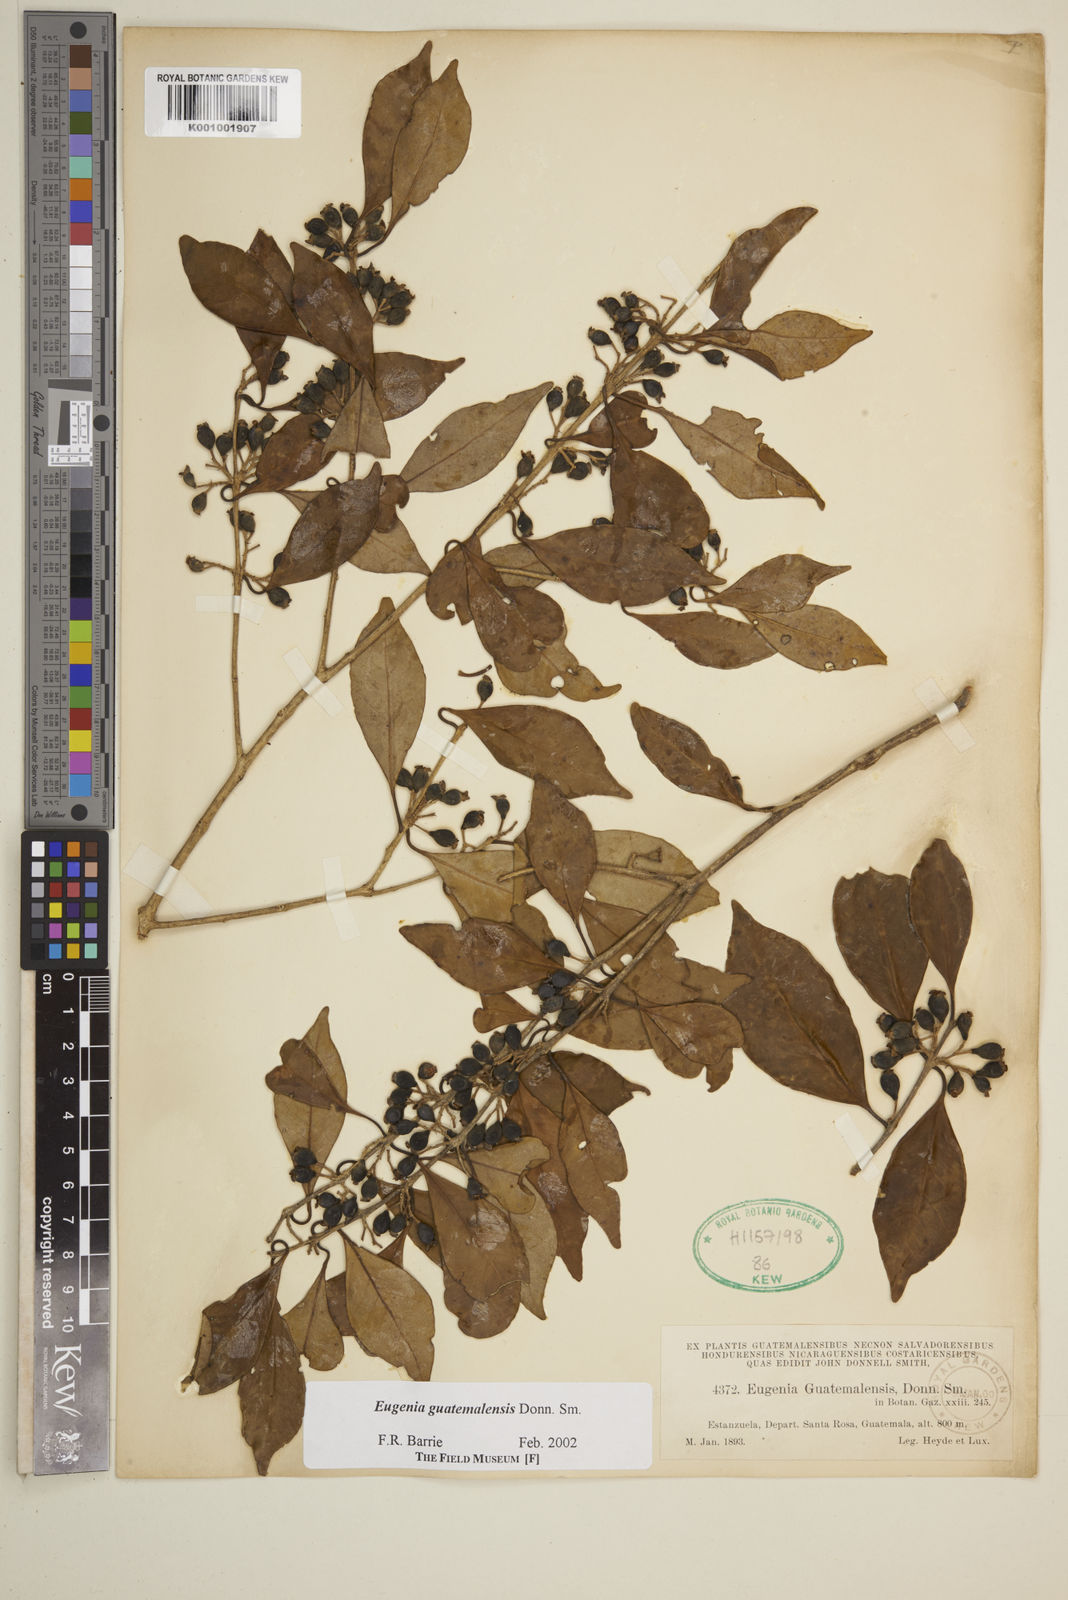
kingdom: Plantae
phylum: Tracheophyta
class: Magnoliopsida
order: Myrtales
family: Myrtaceae
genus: Eugenia
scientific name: Eugenia guatemalensis
